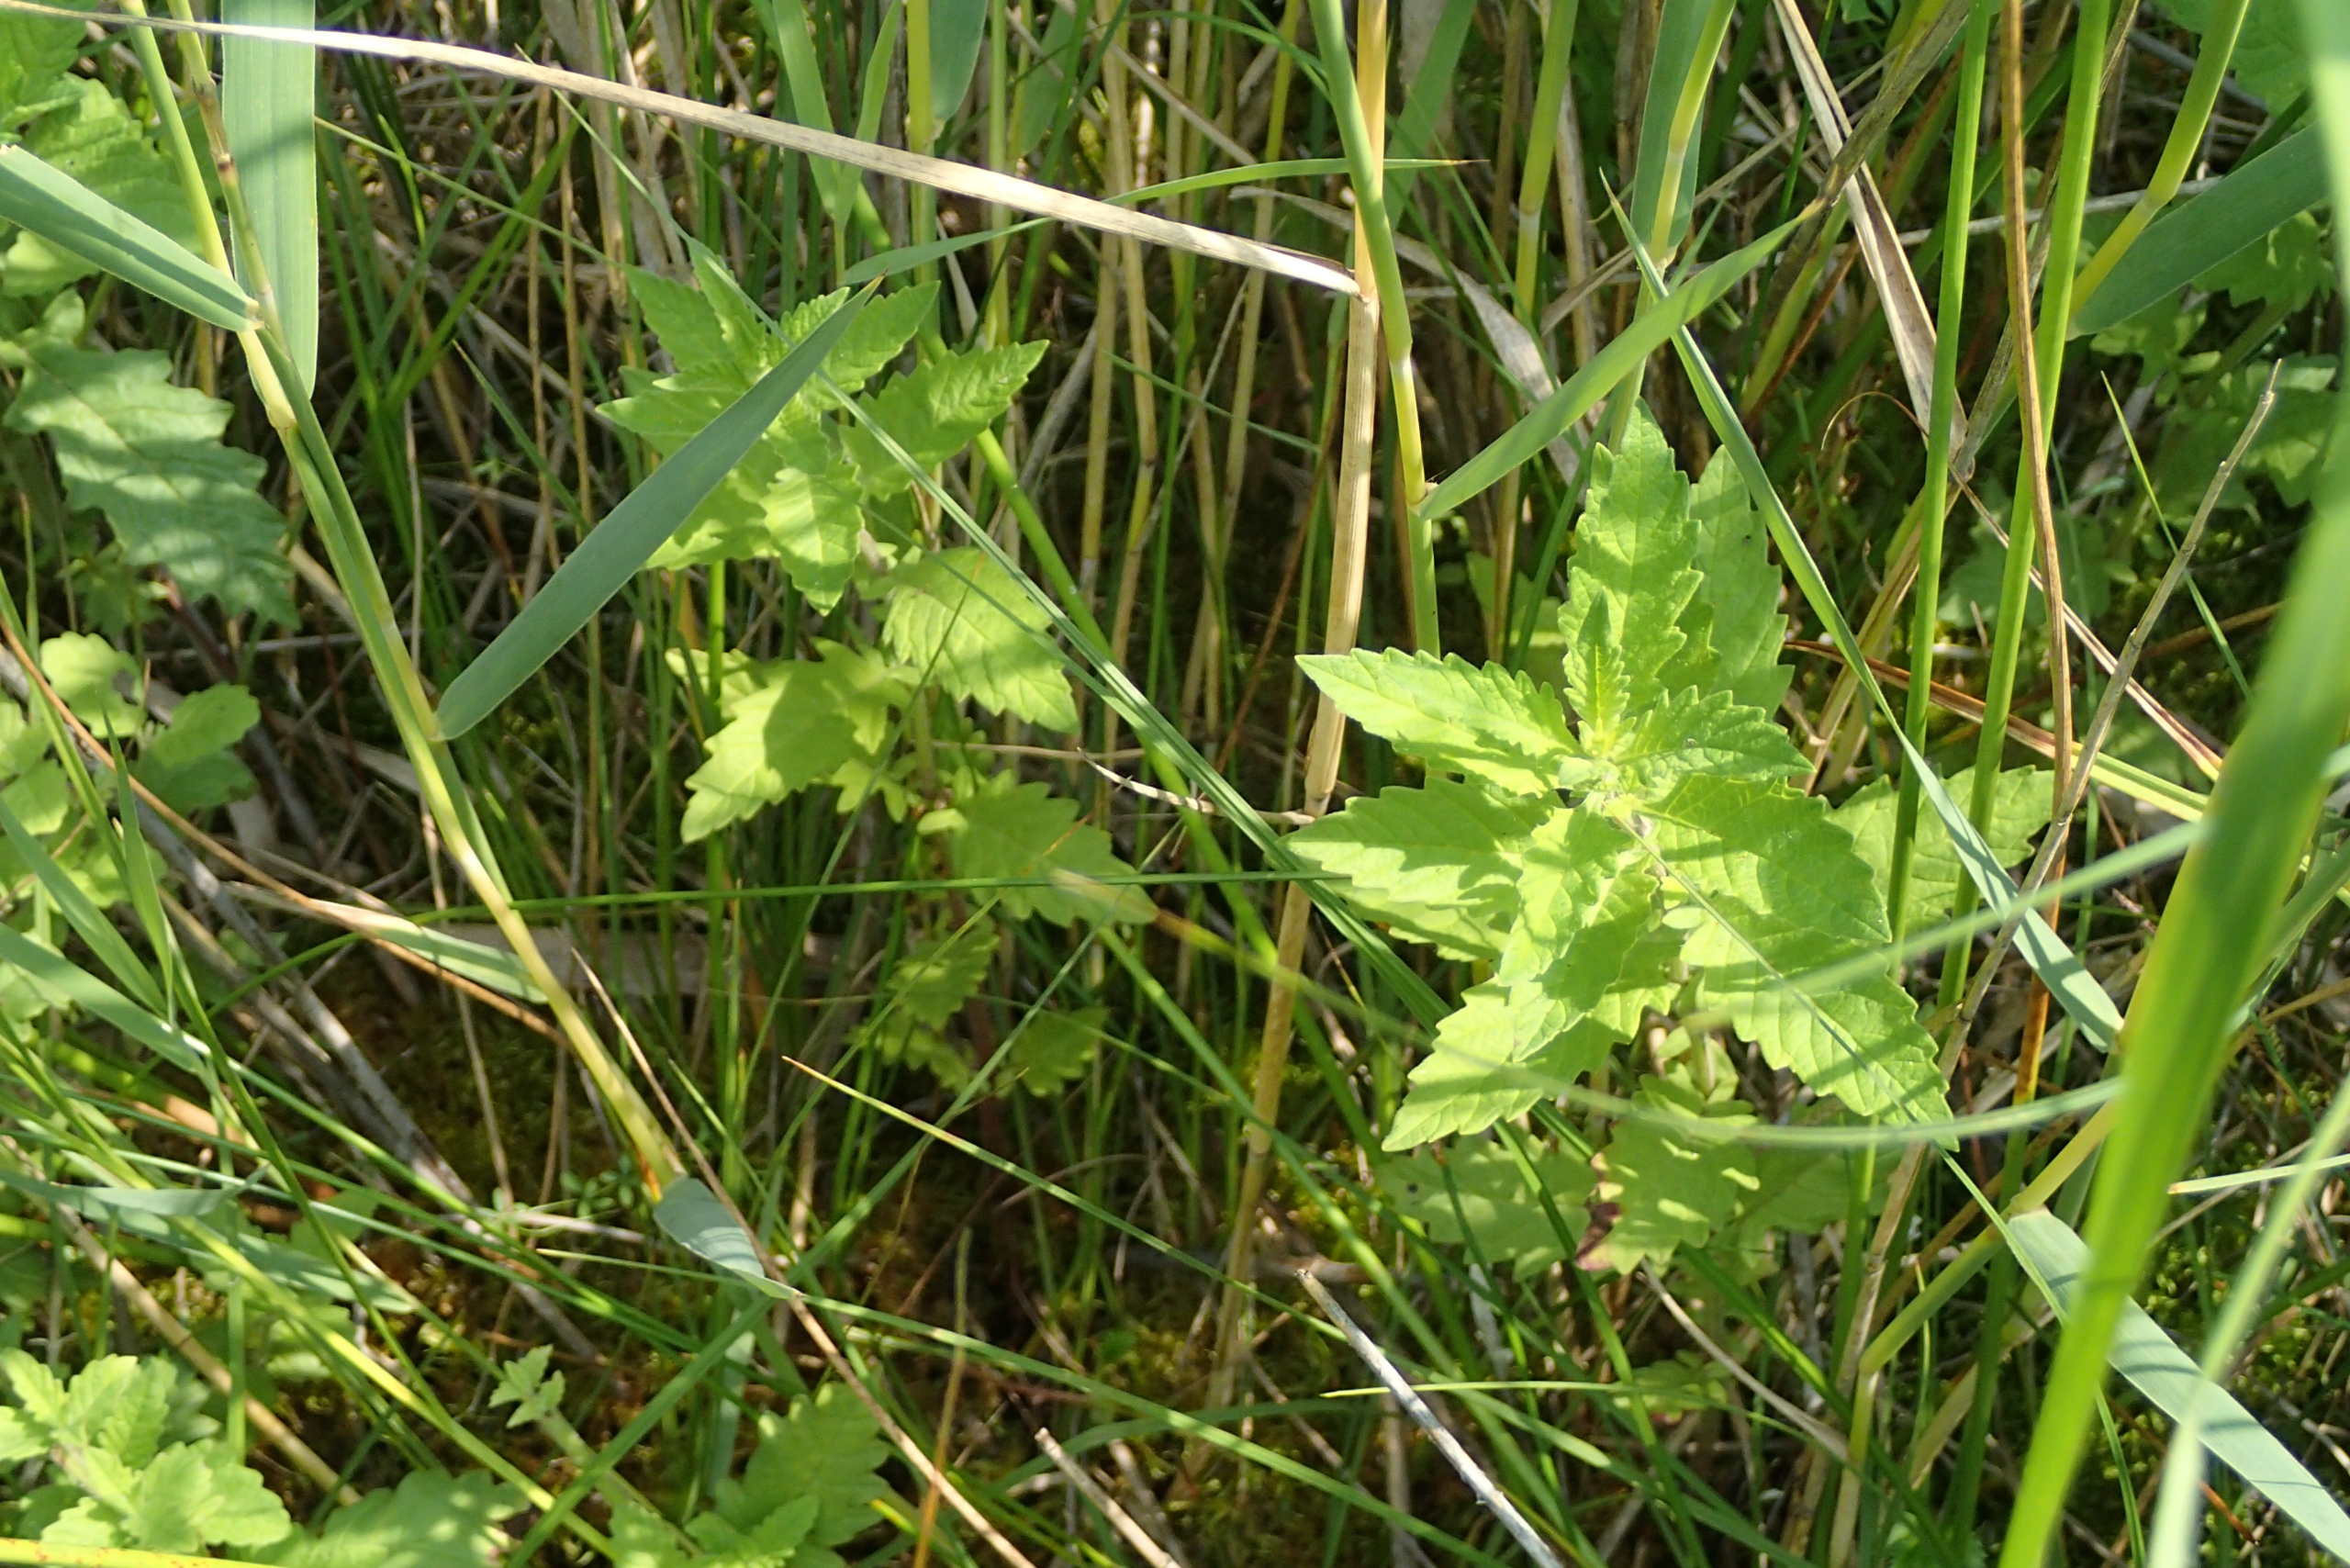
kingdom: Plantae
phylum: Tracheophyta
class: Magnoliopsida
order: Lamiales
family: Lamiaceae
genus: Lycopus
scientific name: Lycopus europaeus
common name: Sværtevæld
